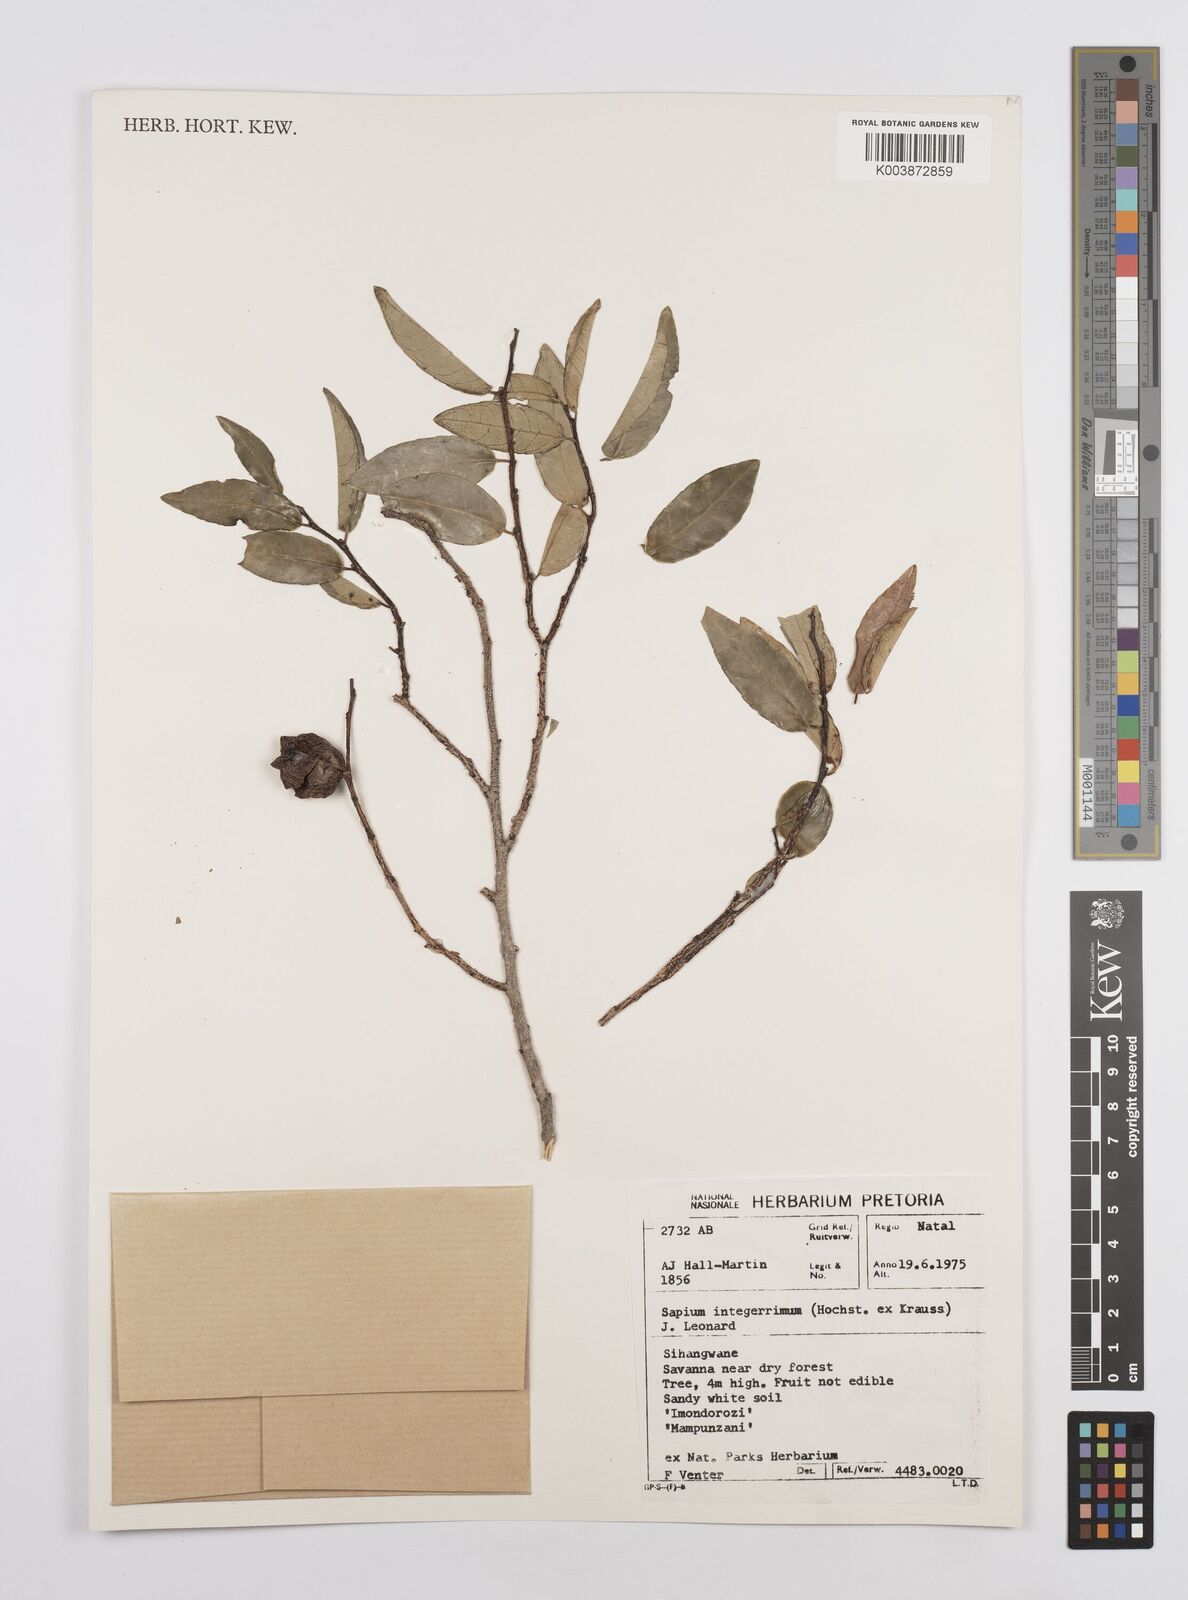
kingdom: Plantae
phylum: Tracheophyta
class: Magnoliopsida
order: Malpighiales
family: Euphorbiaceae
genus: Sclerocroton
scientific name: Sclerocroton integerrimus
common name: Duiker berry
